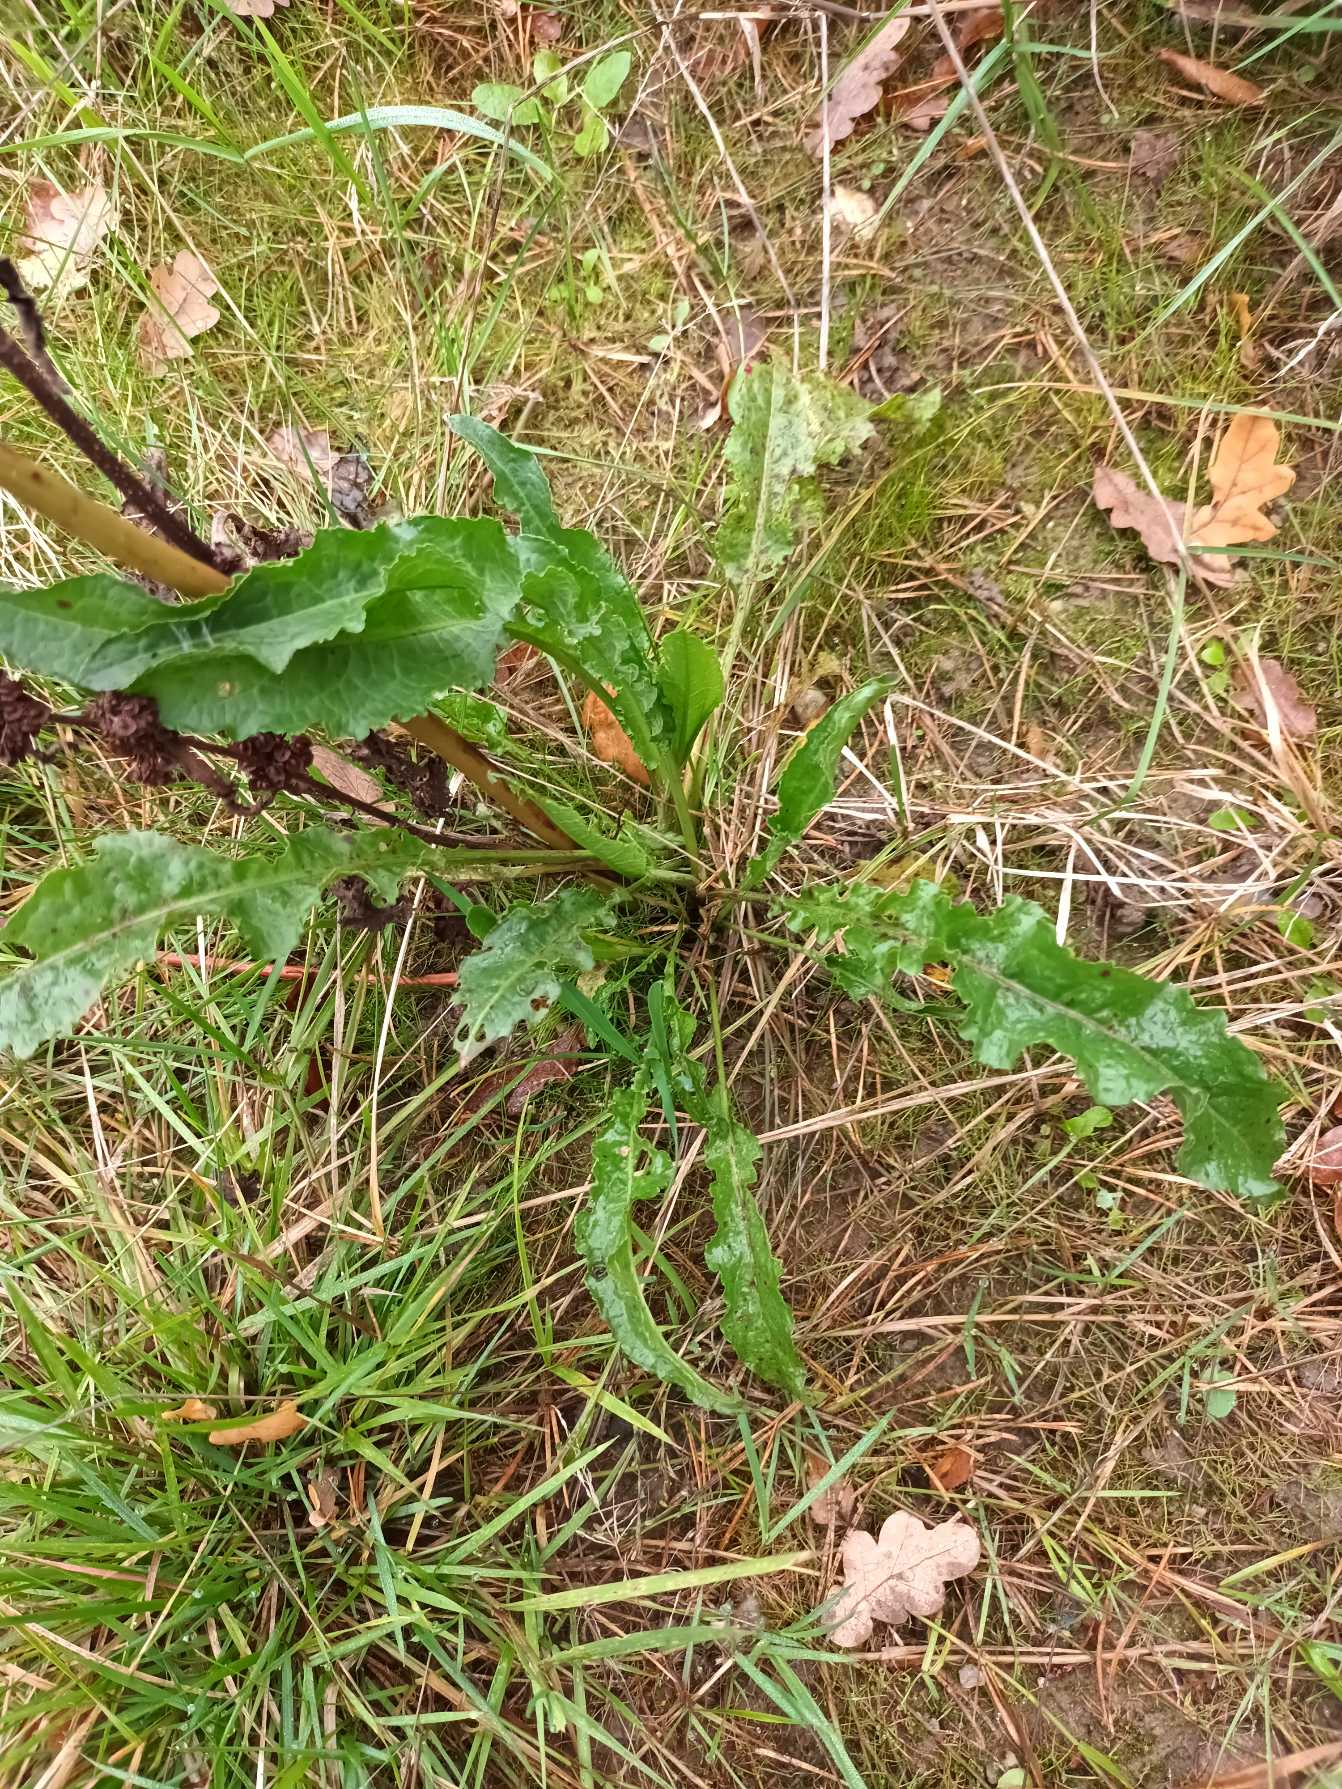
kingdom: Plantae
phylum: Tracheophyta
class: Magnoliopsida
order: Caryophyllales
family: Polygonaceae
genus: Rumex
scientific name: Rumex crispus
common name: Kruset skræppe
